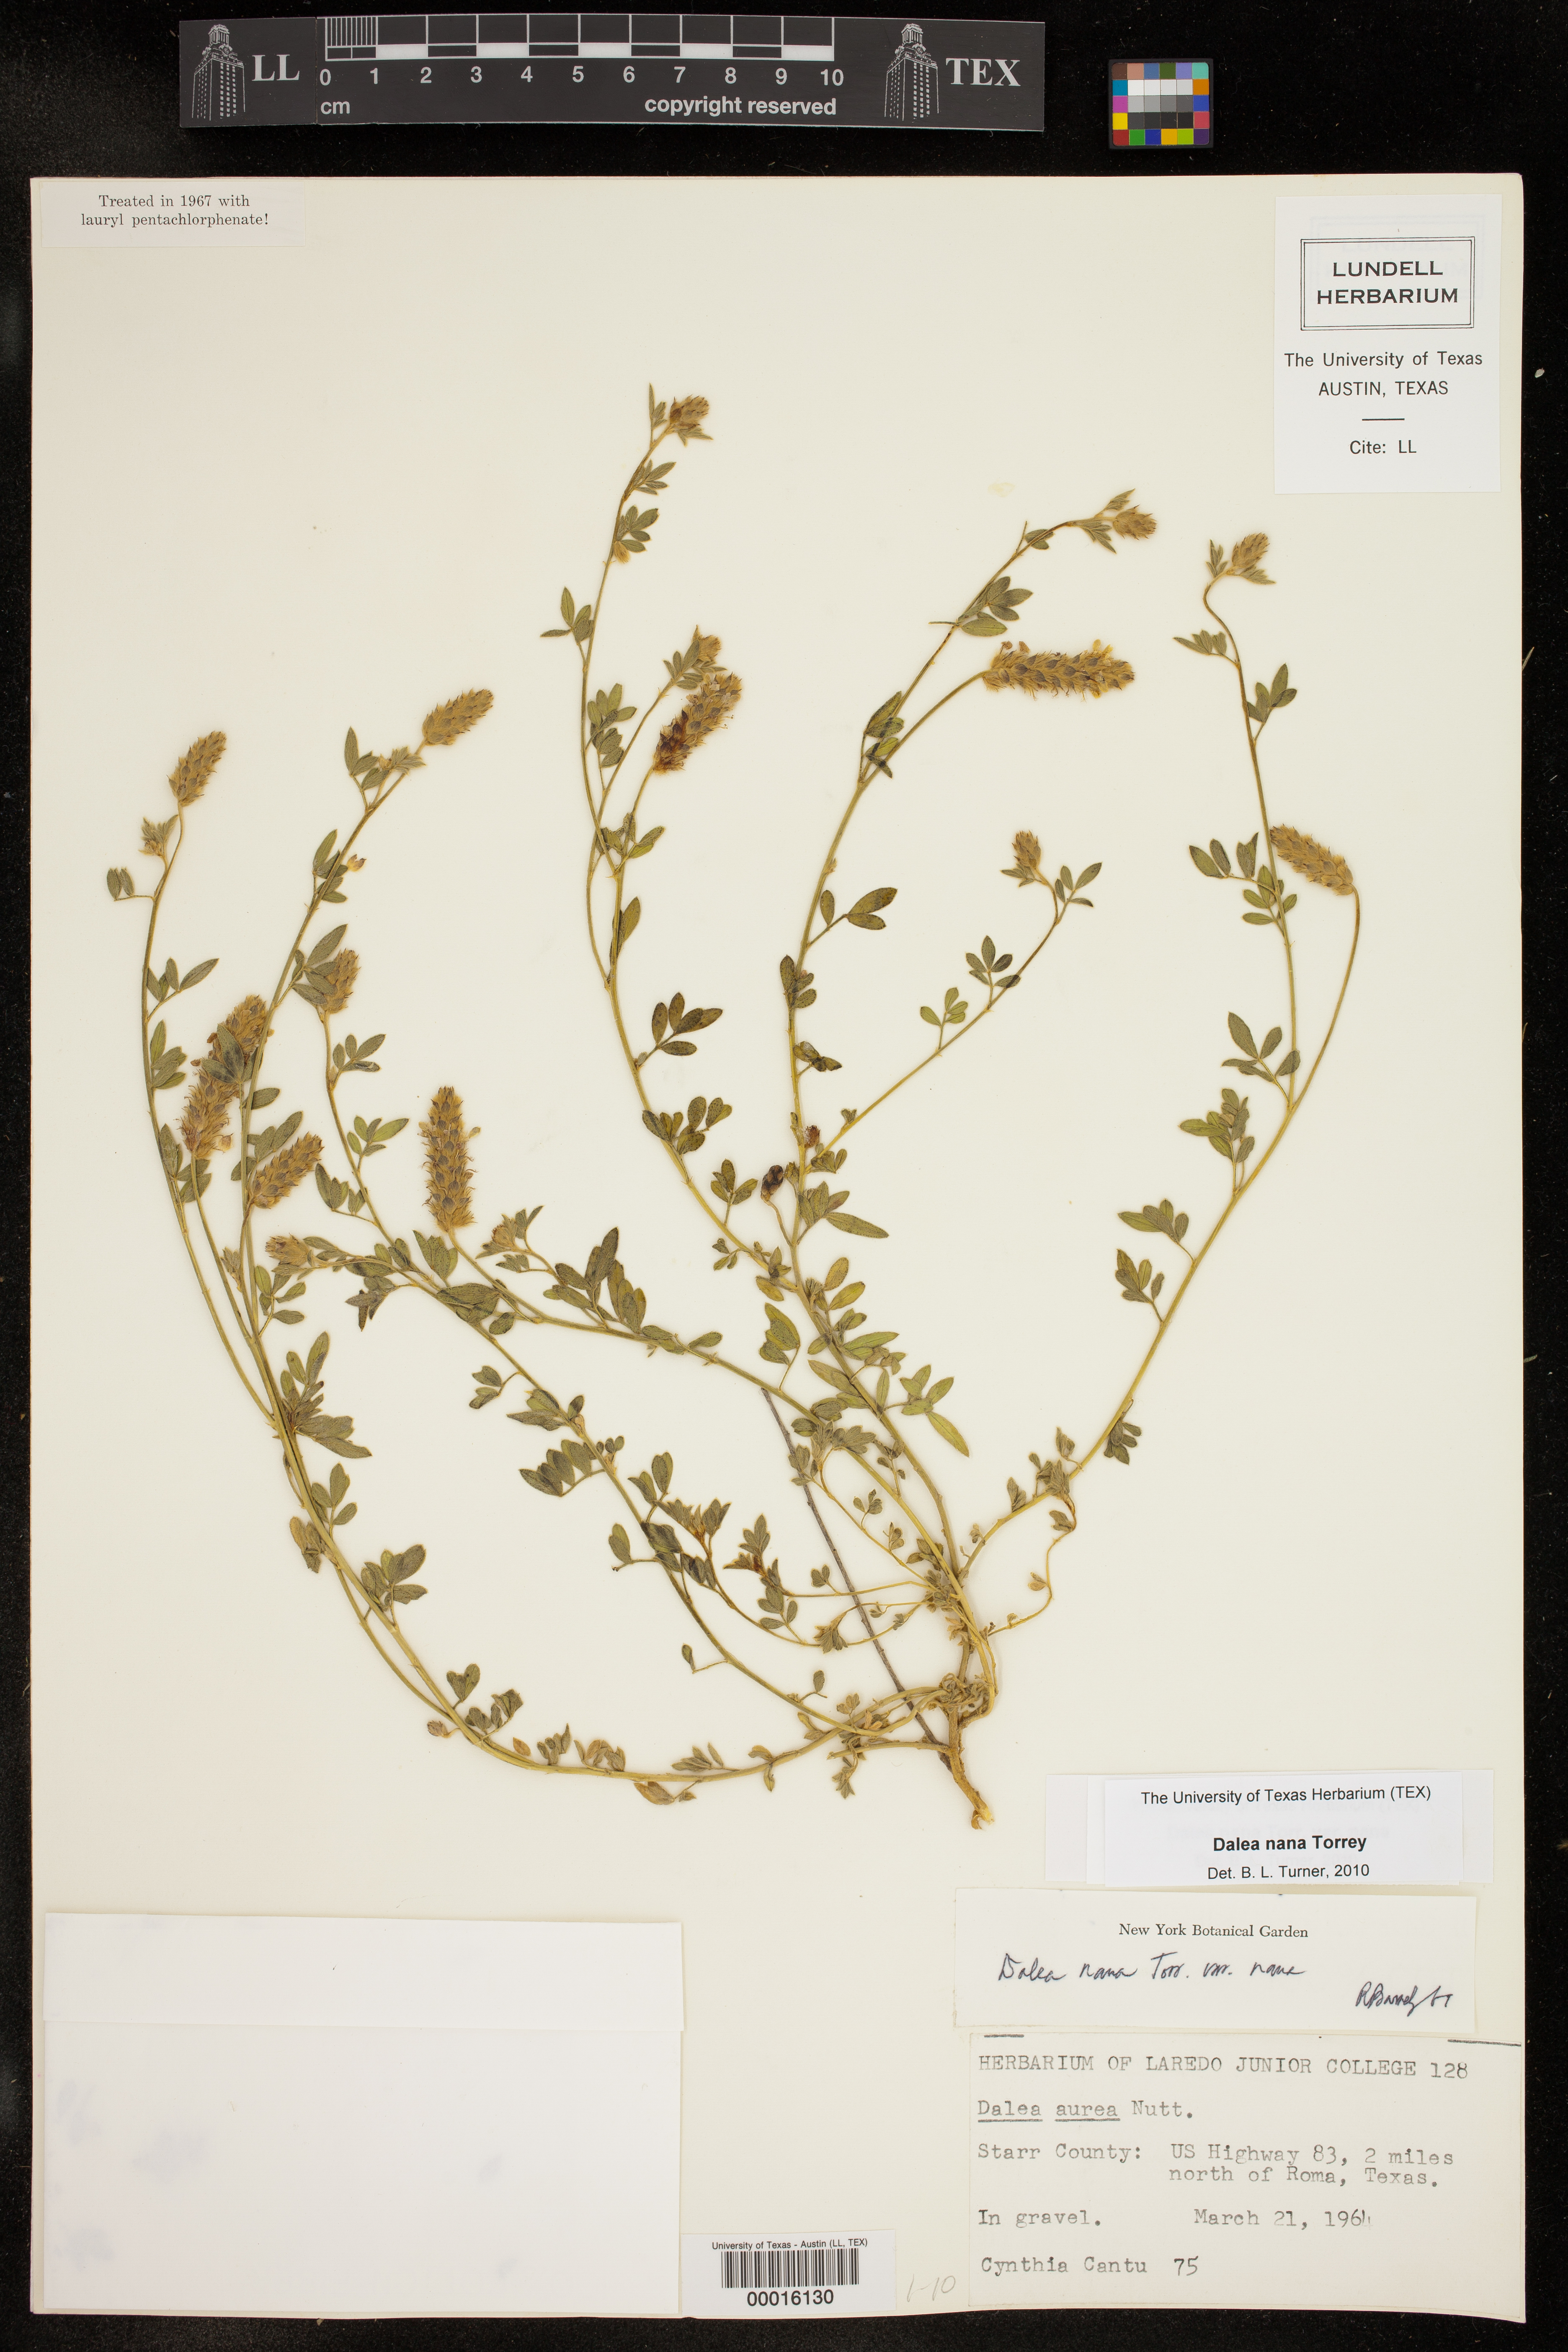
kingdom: Plantae
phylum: Tracheophyta
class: Magnoliopsida
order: Fabales
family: Fabaceae
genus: Dalea
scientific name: Dalea nana
